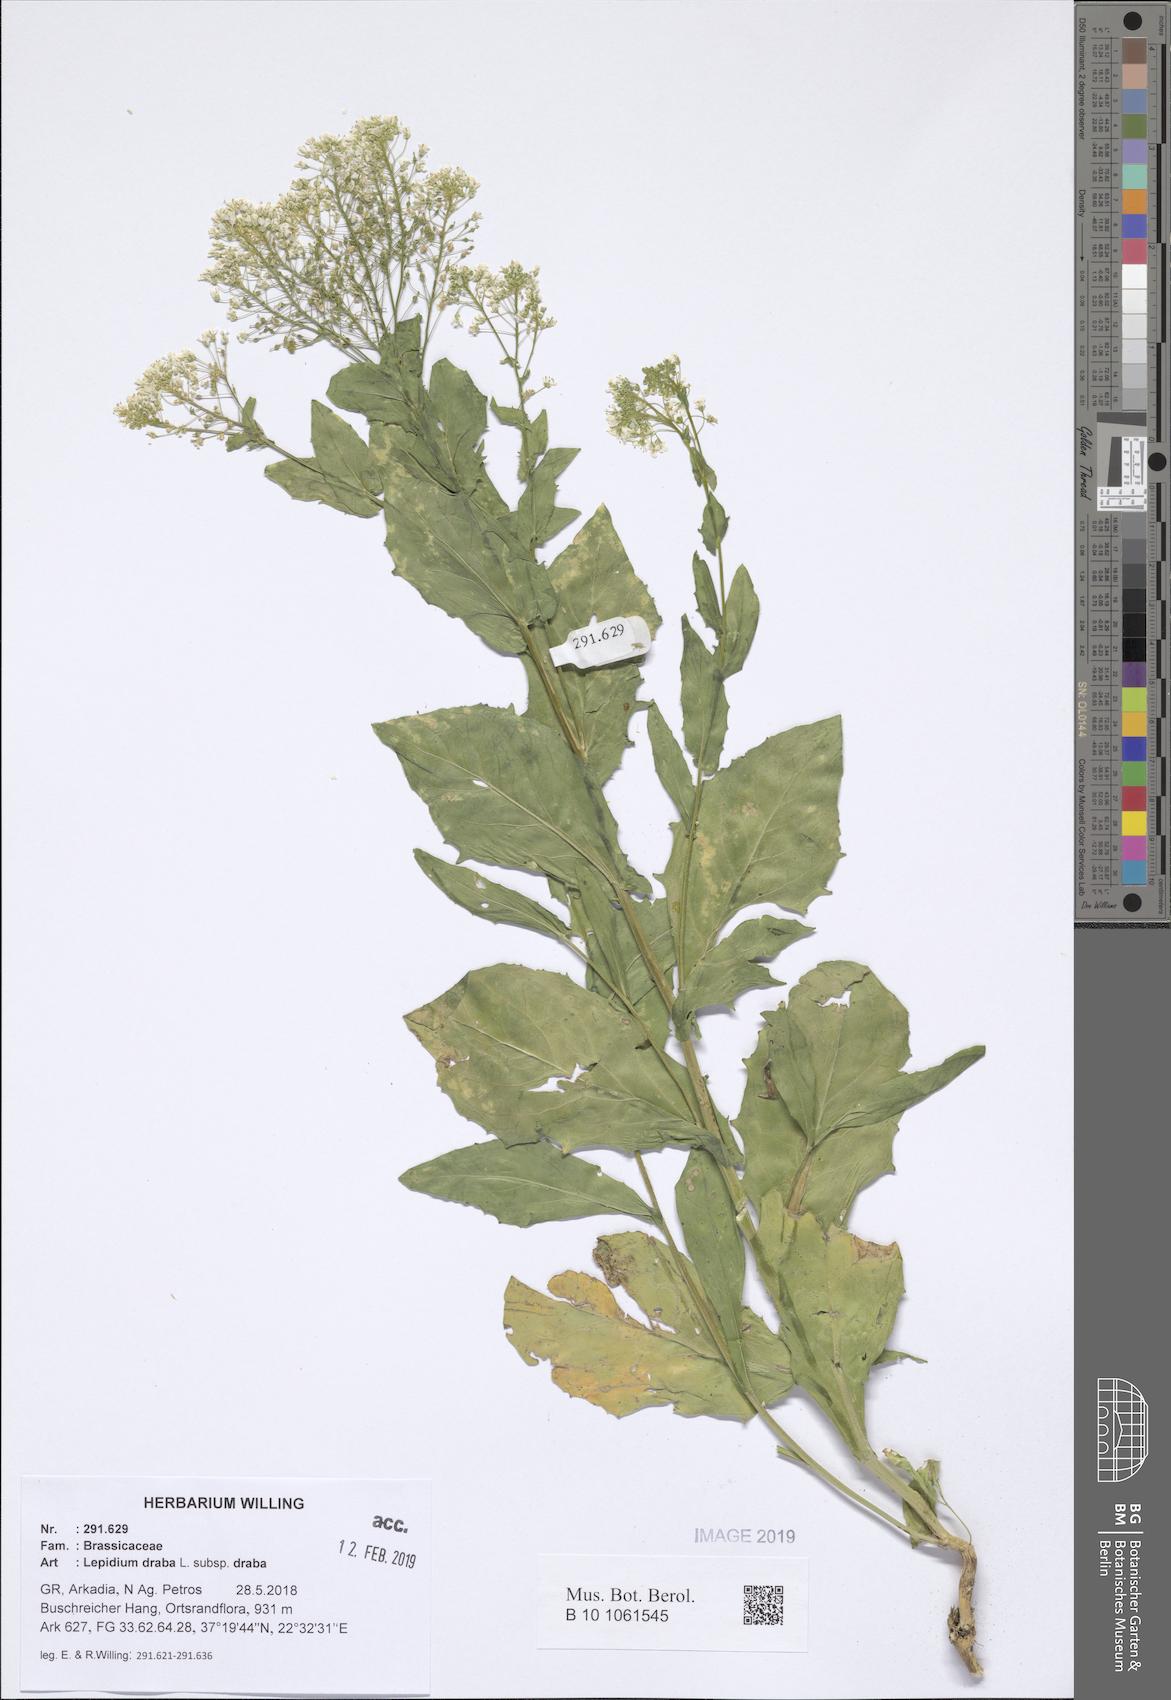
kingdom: Plantae
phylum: Tracheophyta
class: Magnoliopsida
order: Brassicales
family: Brassicaceae
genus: Lepidium
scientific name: Lepidium draba
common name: Hoary cress
